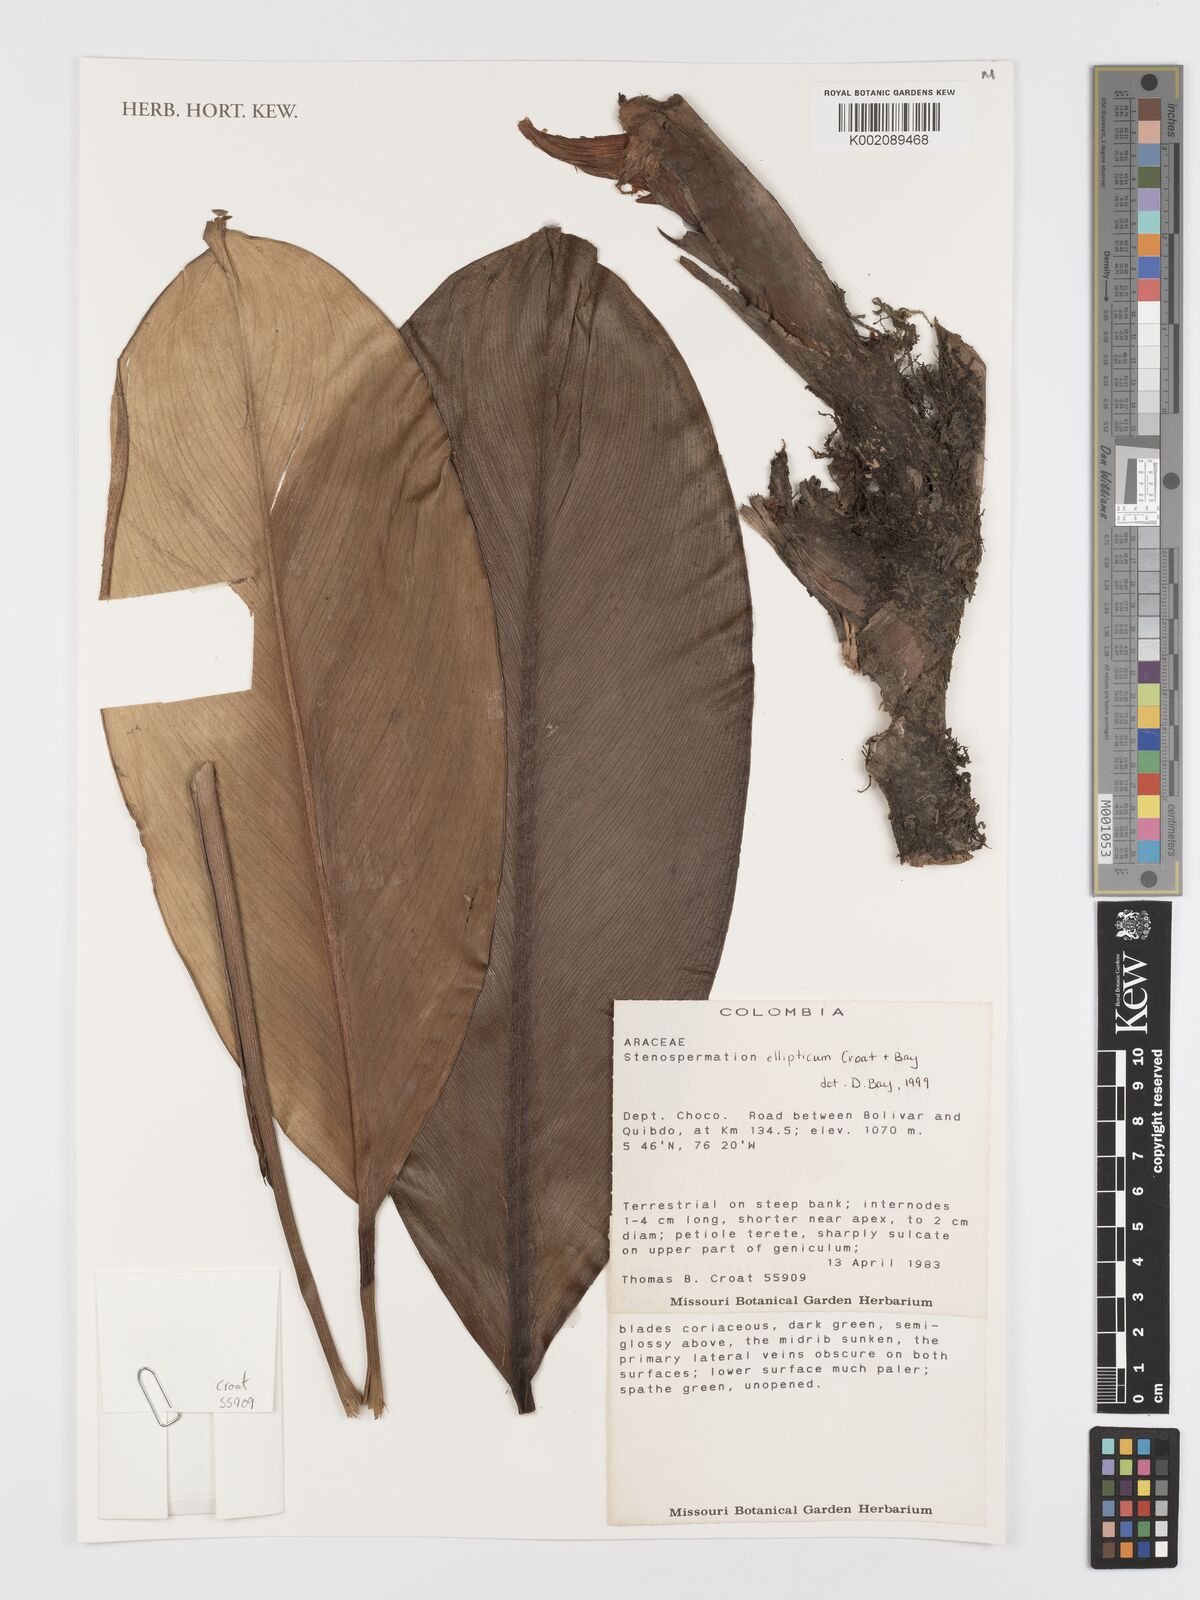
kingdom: Plantae
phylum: Tracheophyta
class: Liliopsida
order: Alismatales
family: Araceae
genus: Stenospermation
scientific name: Stenospermation ellipticum
